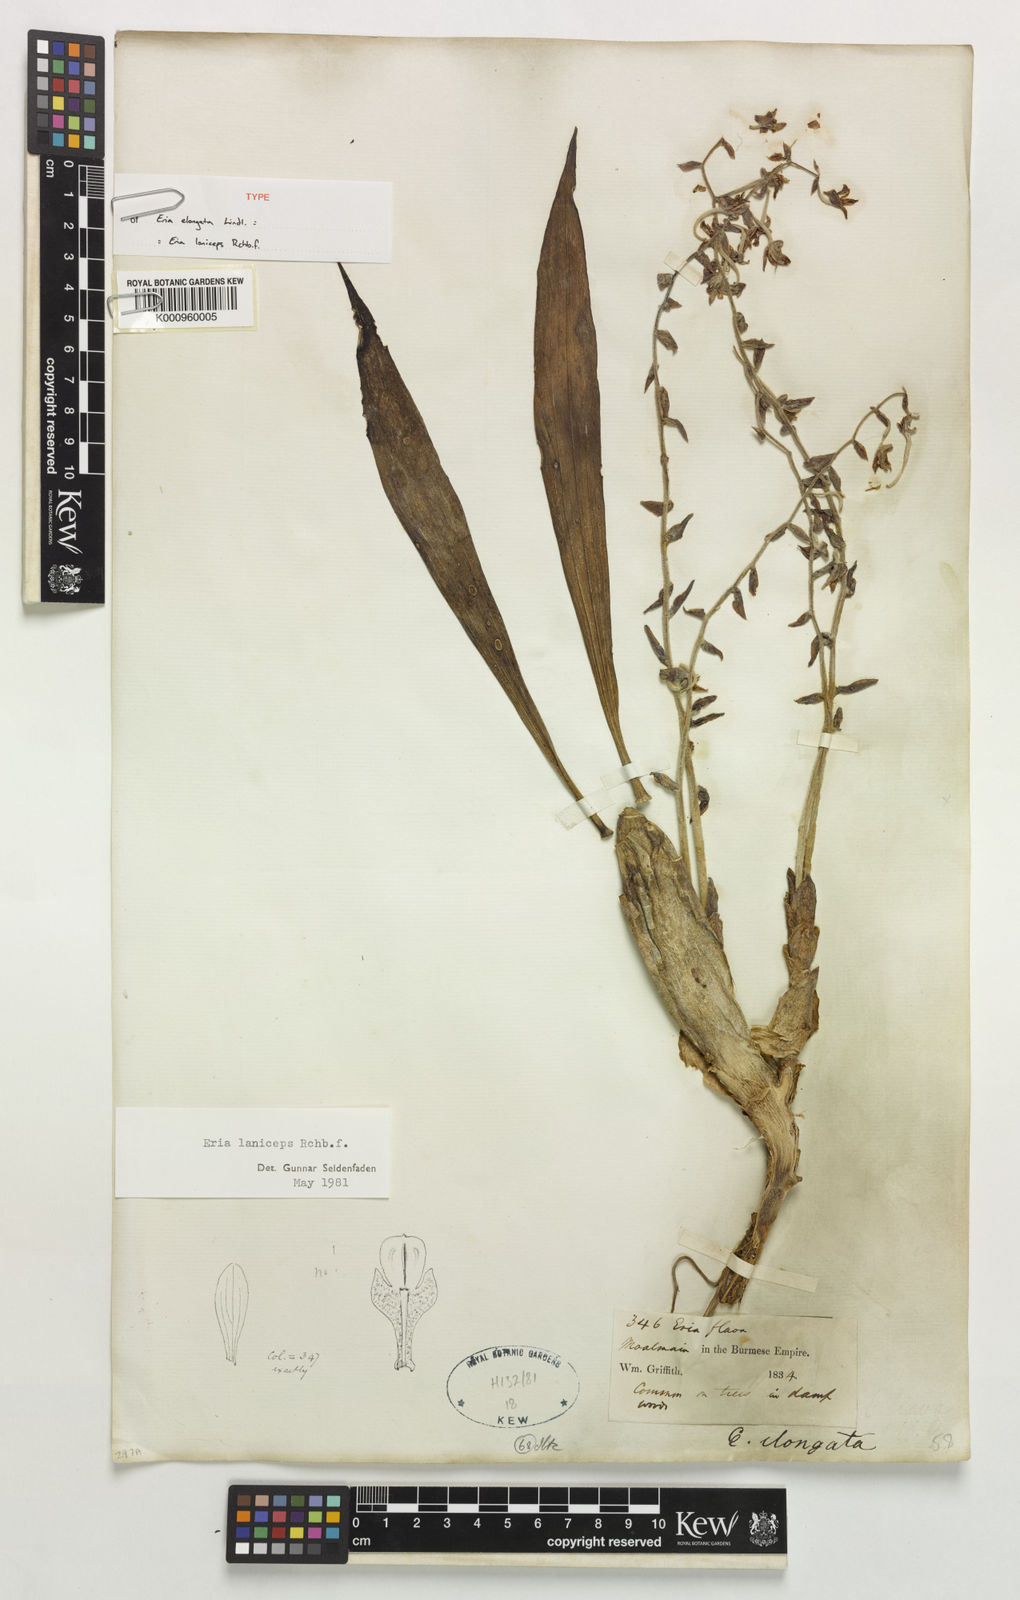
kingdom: Plantae
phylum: Tracheophyta
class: Liliopsida
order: Asparagales
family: Orchidaceae
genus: Dendrolirium
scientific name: Dendrolirium laniceps
